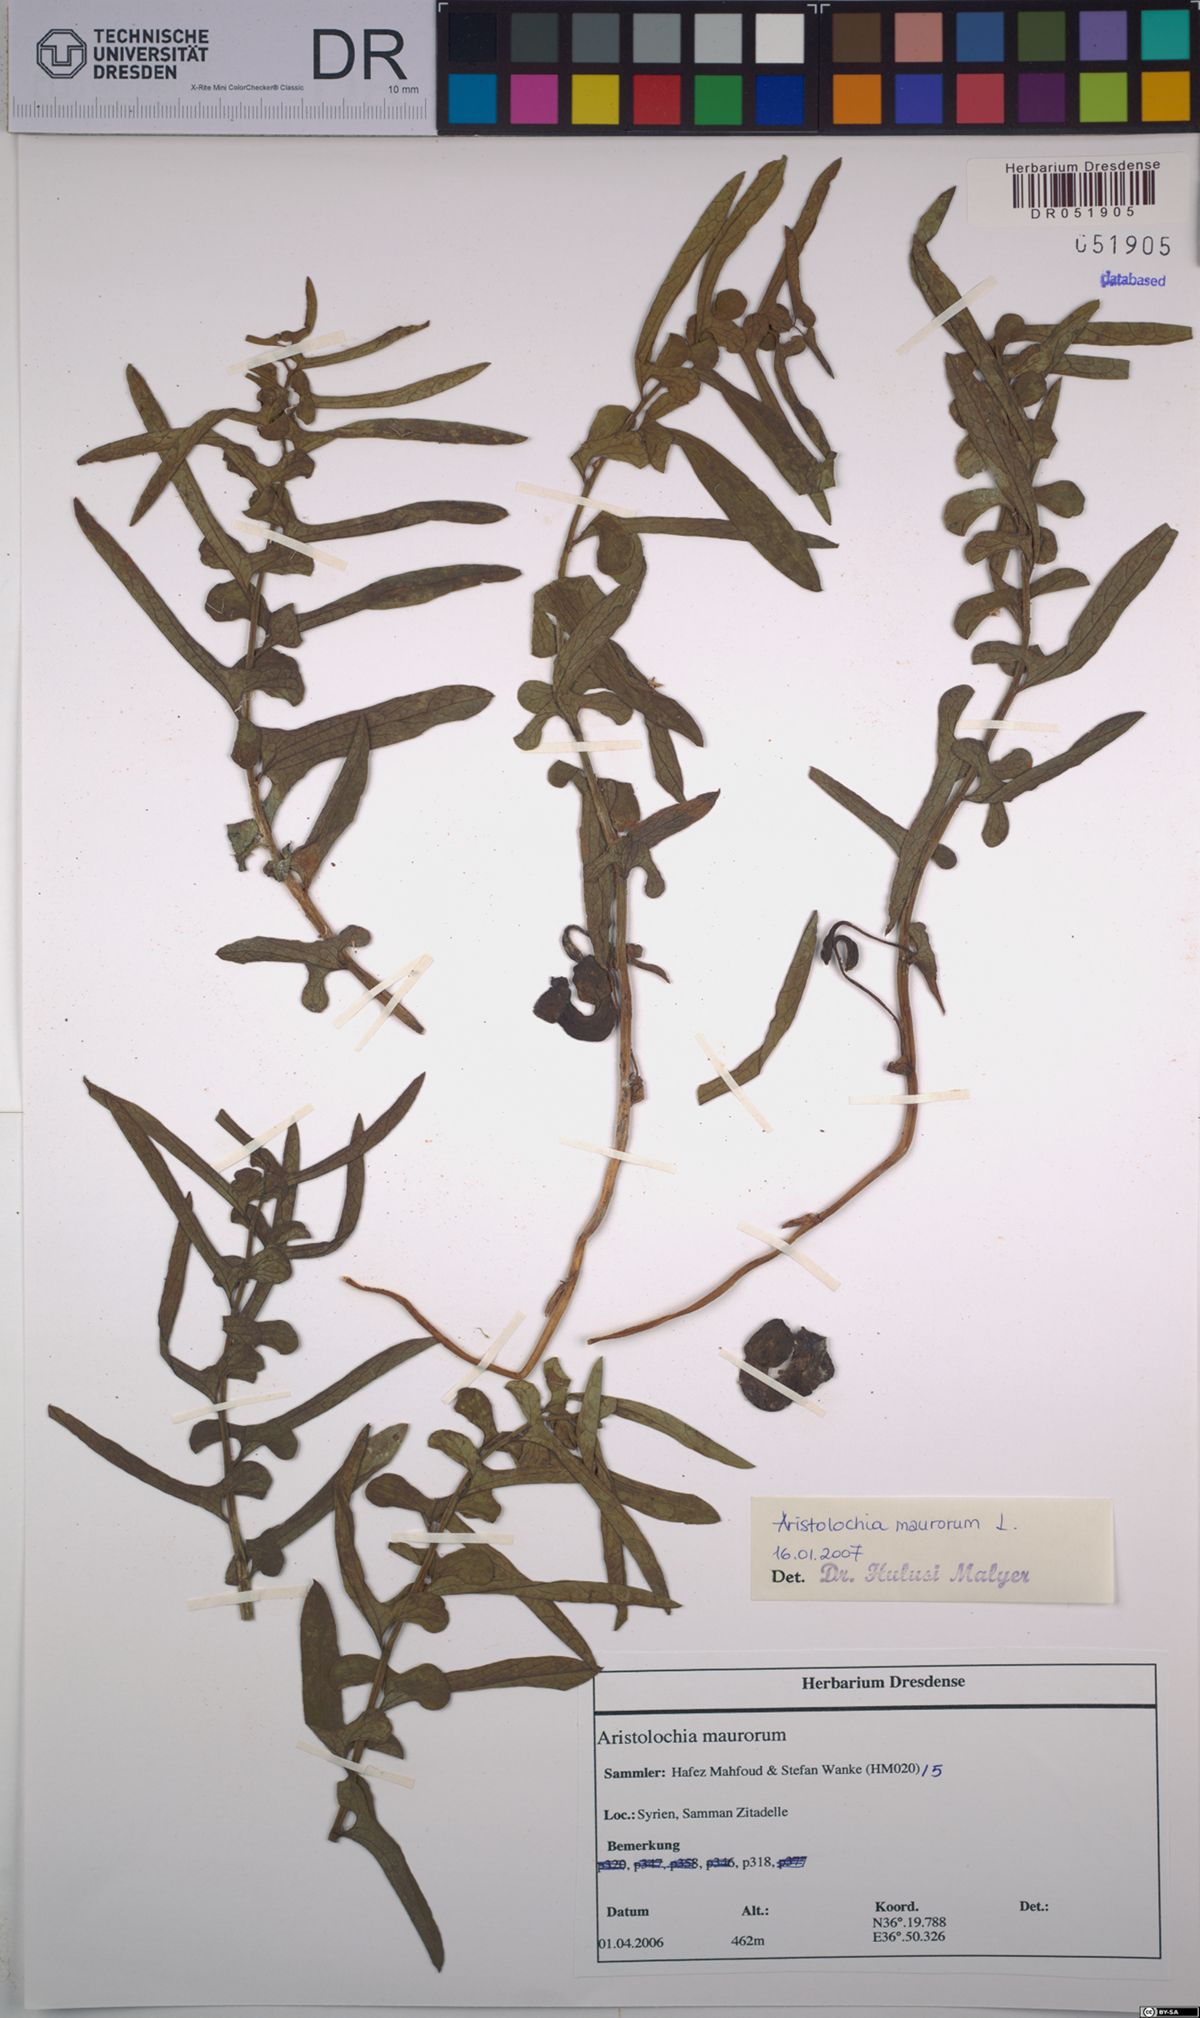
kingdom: Plantae
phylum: Tracheophyta
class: Magnoliopsida
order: Piperales
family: Aristolochiaceae
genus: Aristolochia
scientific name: Aristolochia maurorum
